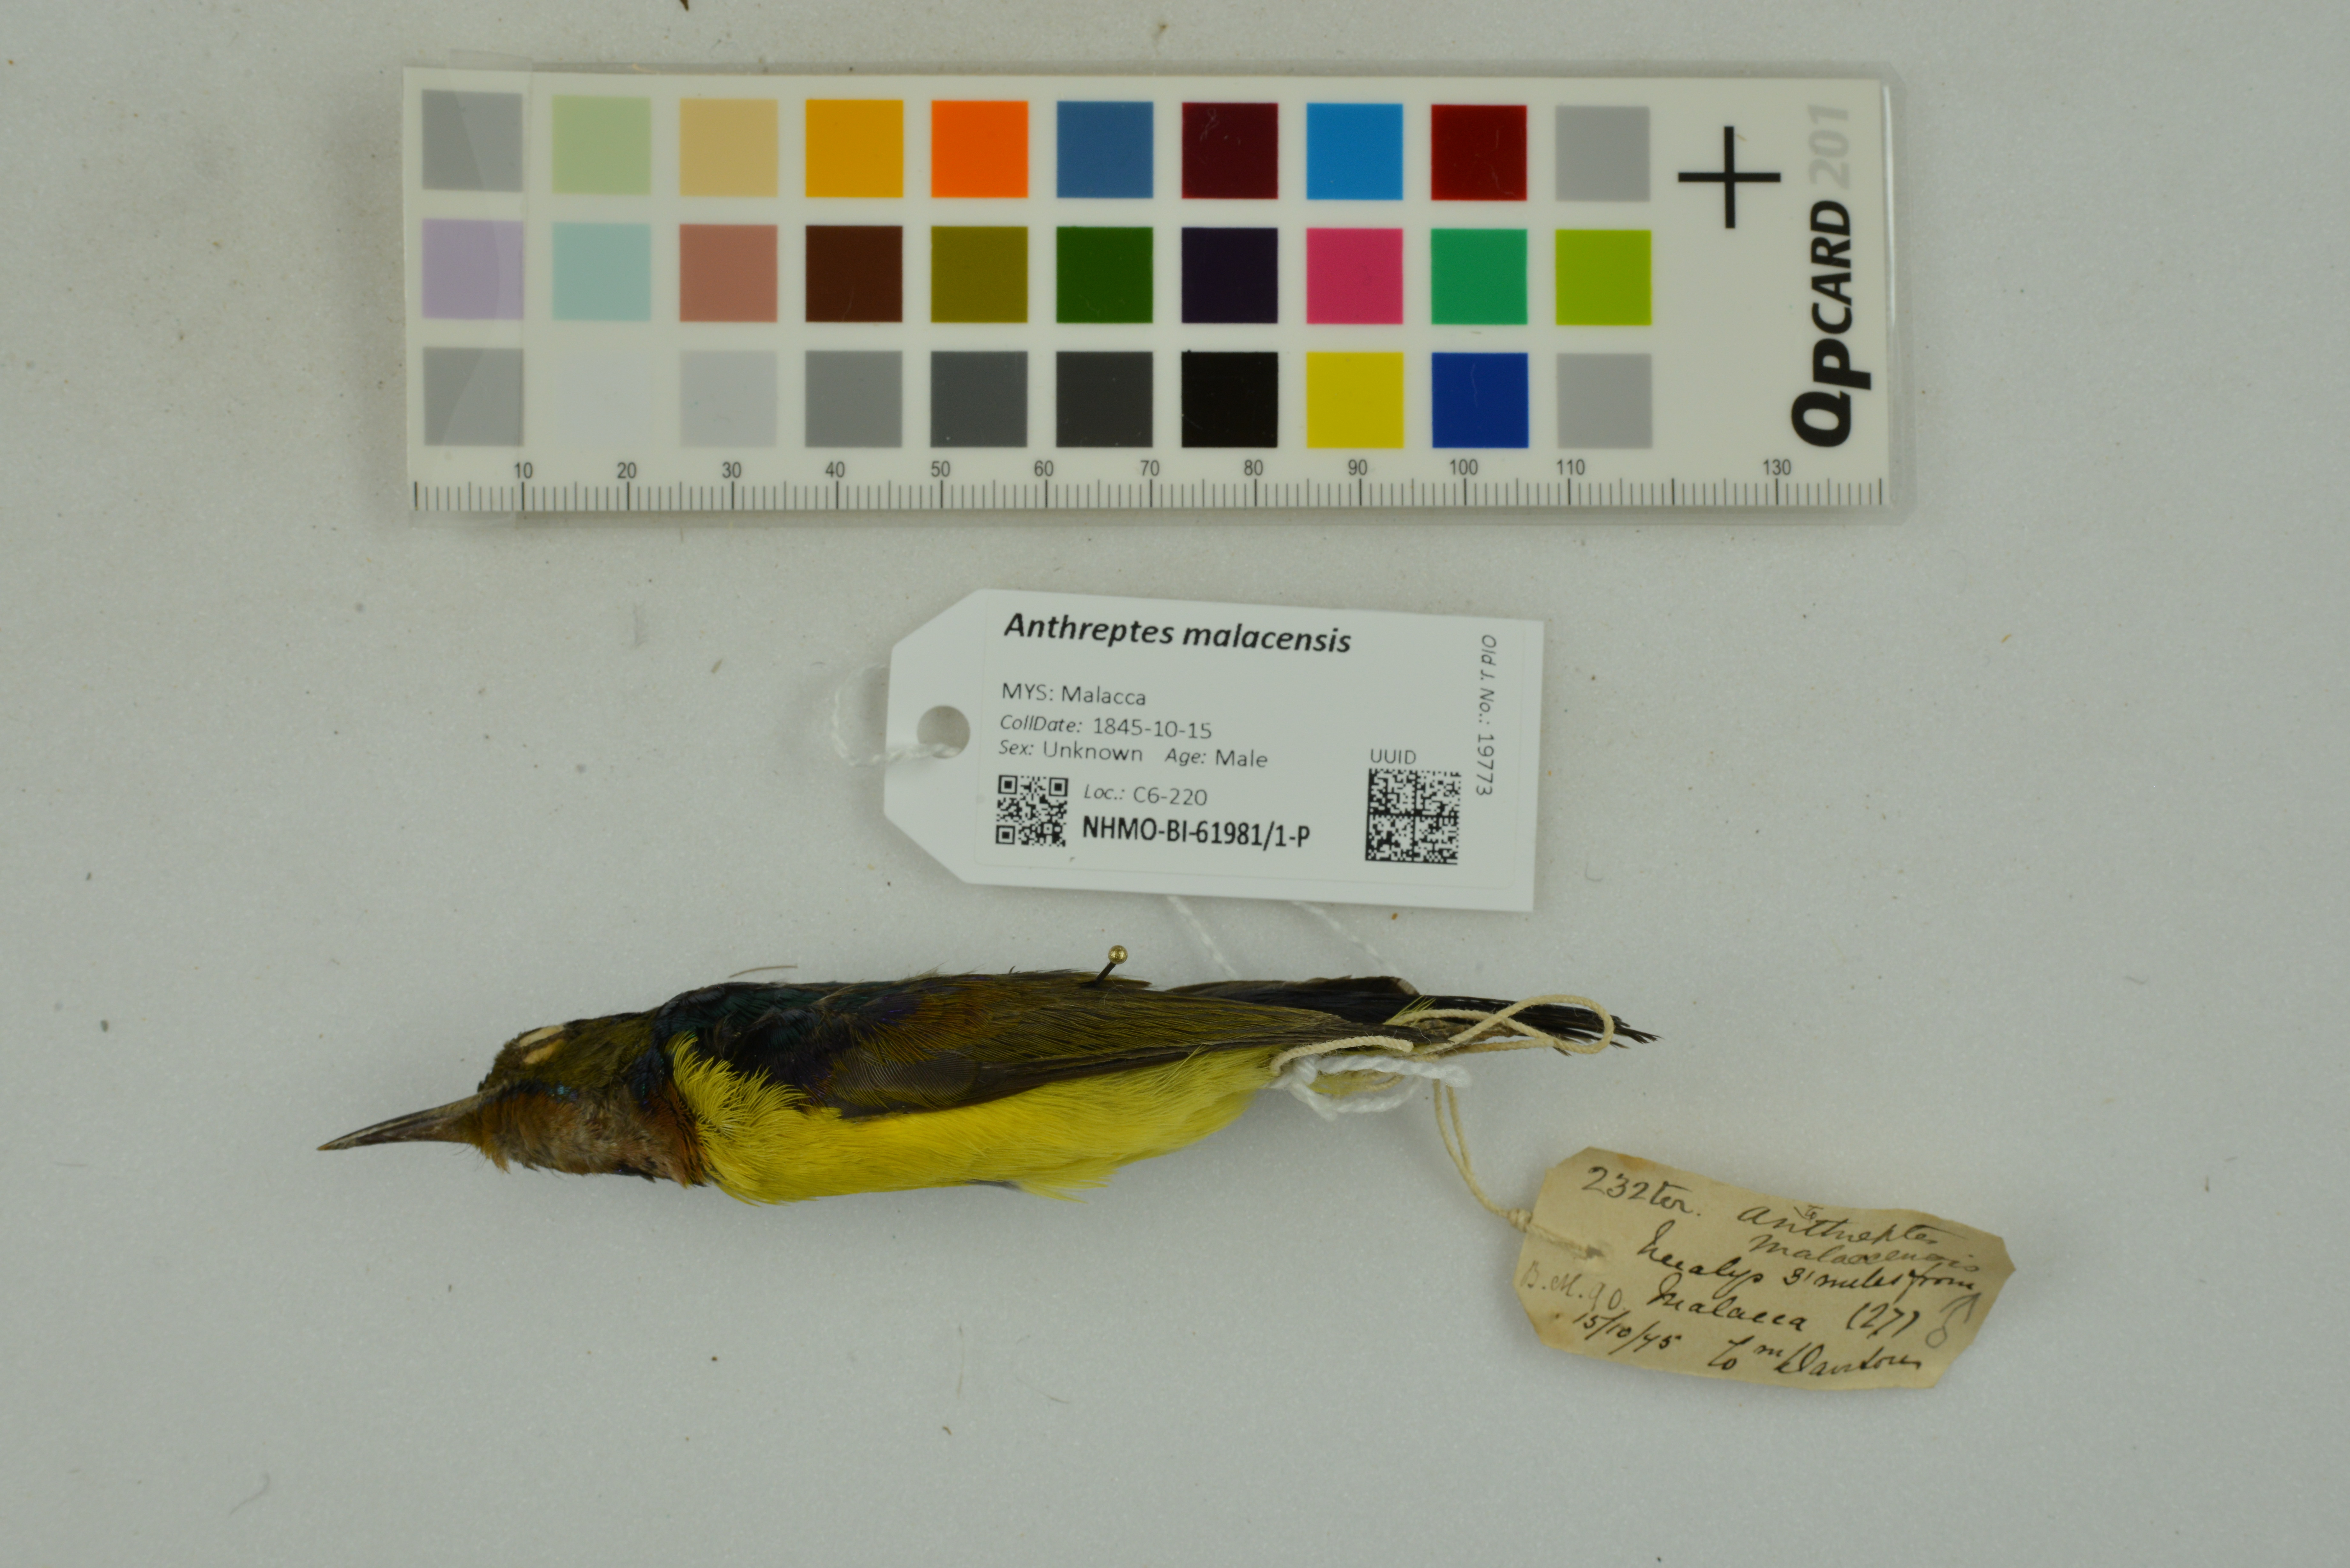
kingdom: Animalia
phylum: Chordata
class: Aves
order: Passeriformes
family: Nectariniidae
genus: Anthreptes
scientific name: Anthreptes malacensis
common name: Brown-throated sunbird
